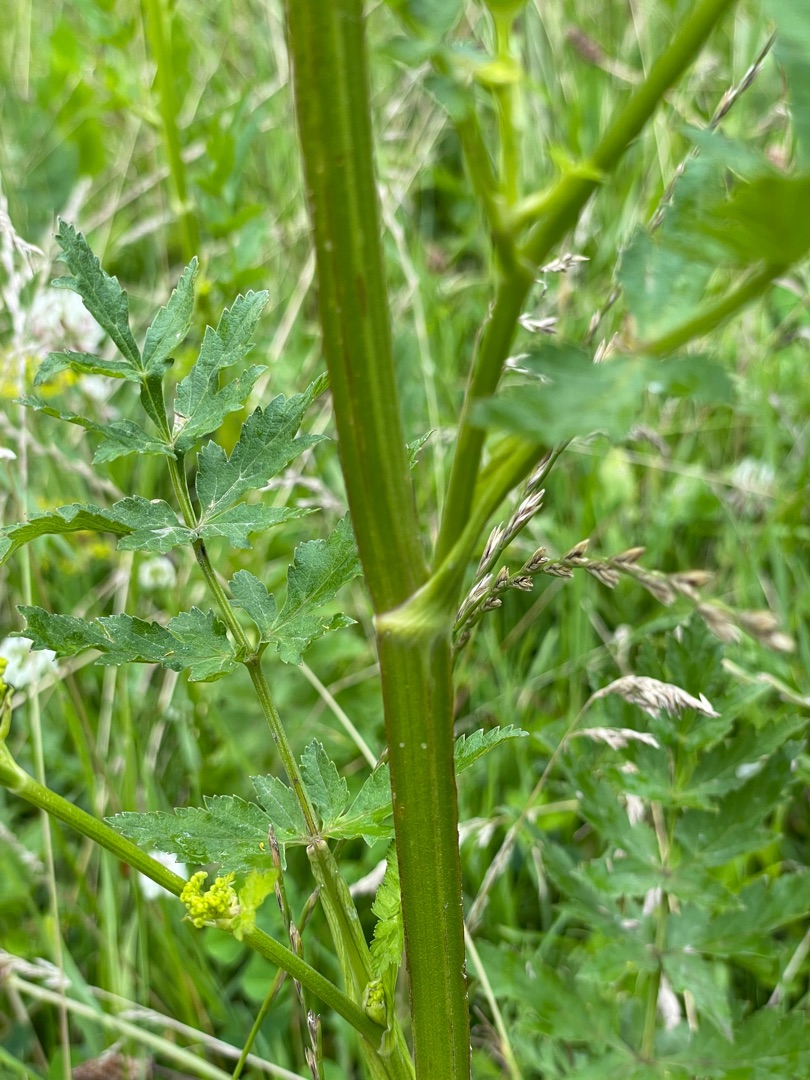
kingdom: Plantae
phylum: Tracheophyta
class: Magnoliopsida
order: Apiales
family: Apiaceae
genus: Pastinaca
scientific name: Pastinaca sativa
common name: Have-pastinak
